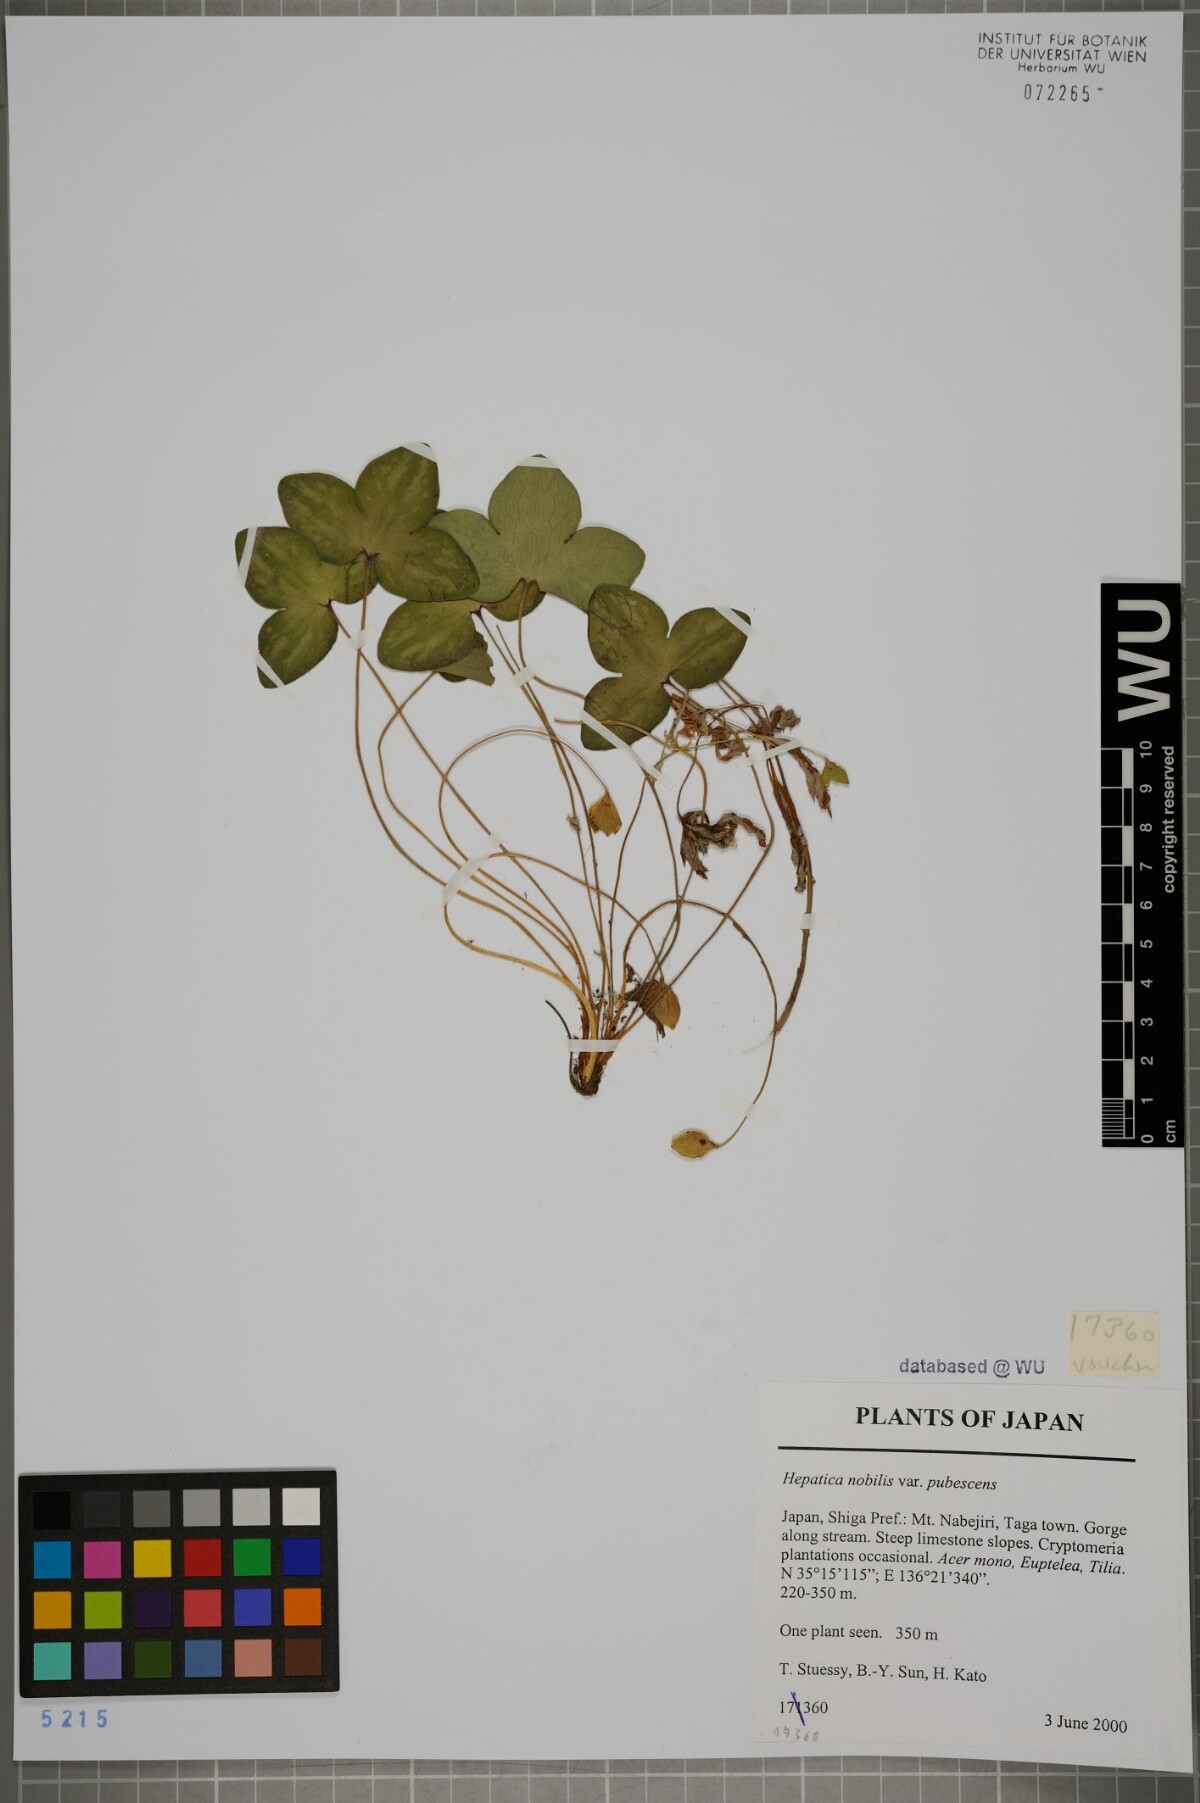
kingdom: Plantae
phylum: Tracheophyta
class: Magnoliopsida
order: Ranunculales
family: Ranunculaceae
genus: Hepatica
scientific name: Hepatica nobilis
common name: Liverleaf
